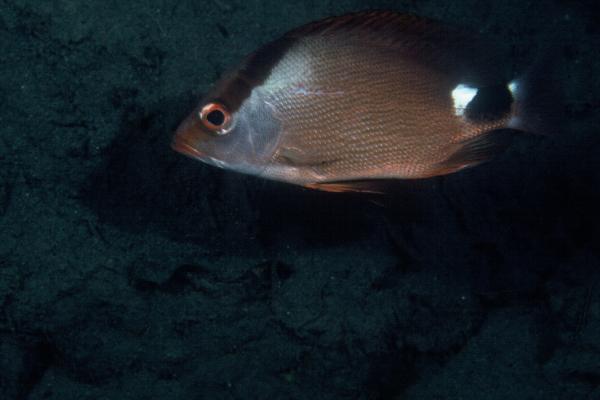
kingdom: Animalia
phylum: Chordata
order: Perciformes
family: Lutjanidae
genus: Lutjanus
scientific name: Lutjanus malabaricus
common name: Malabar snapper
